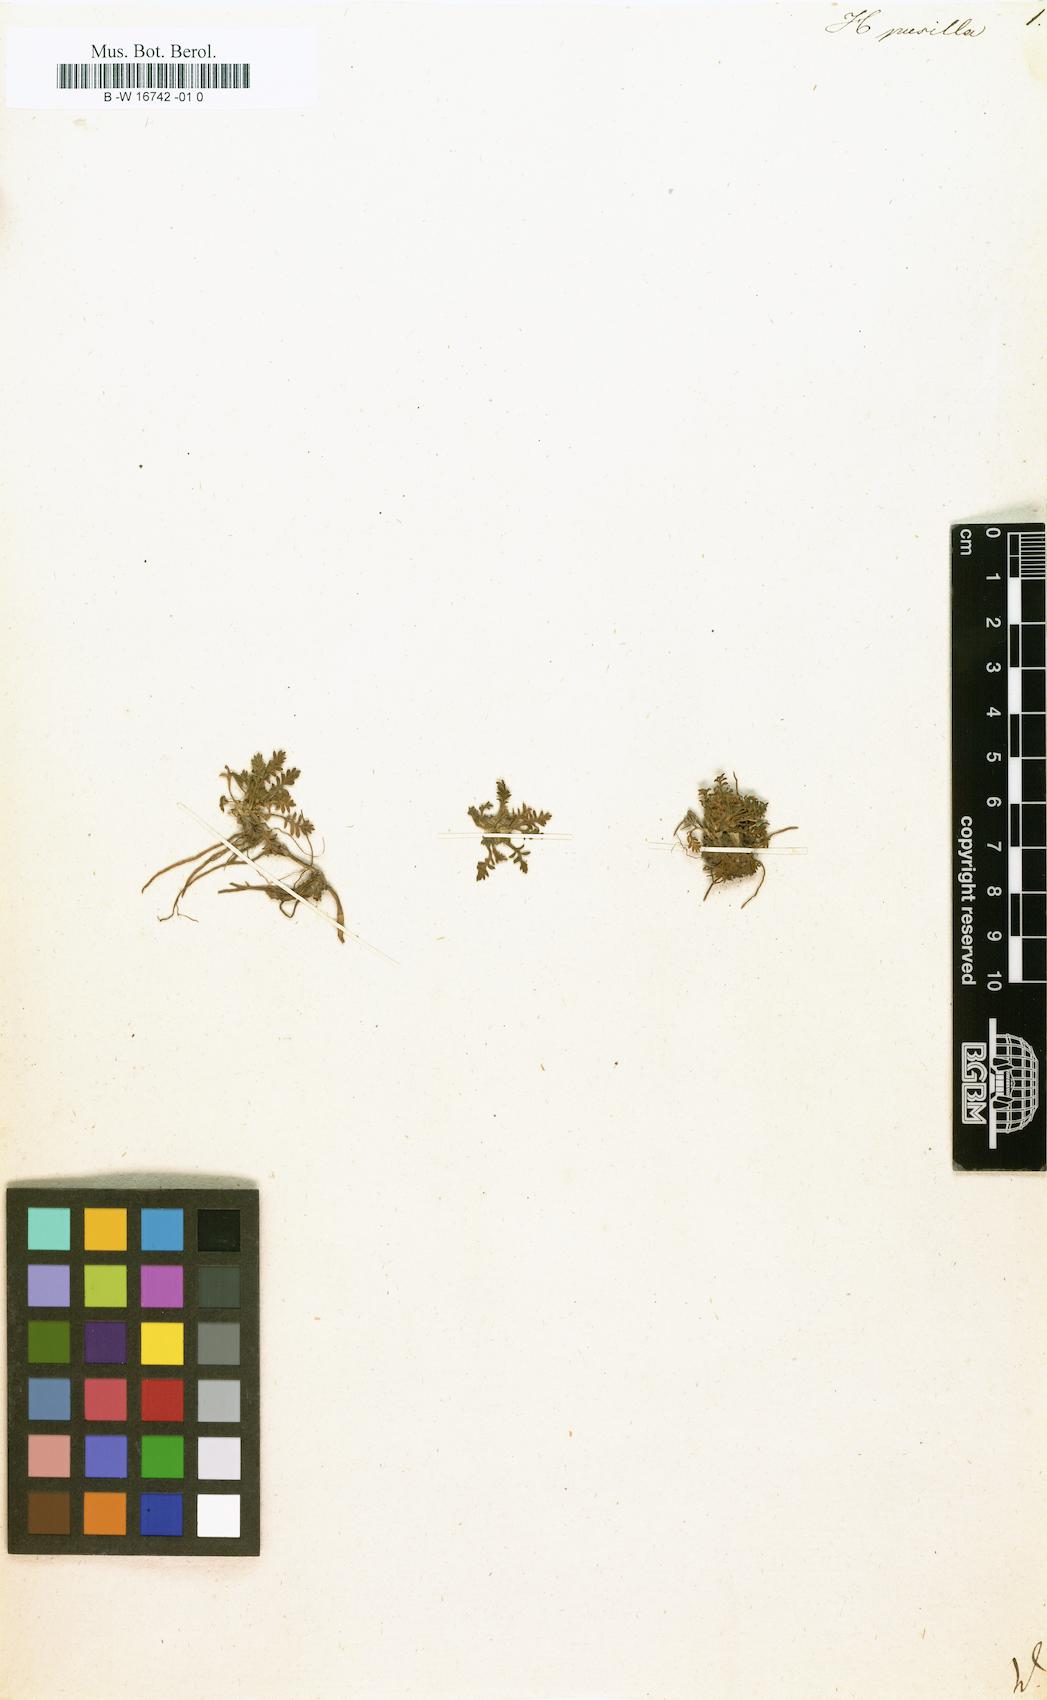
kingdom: Plantae
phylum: Tracheophyta
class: Magnoliopsida
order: Asterales
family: Asteraceae
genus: Hippia
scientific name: Hippia
